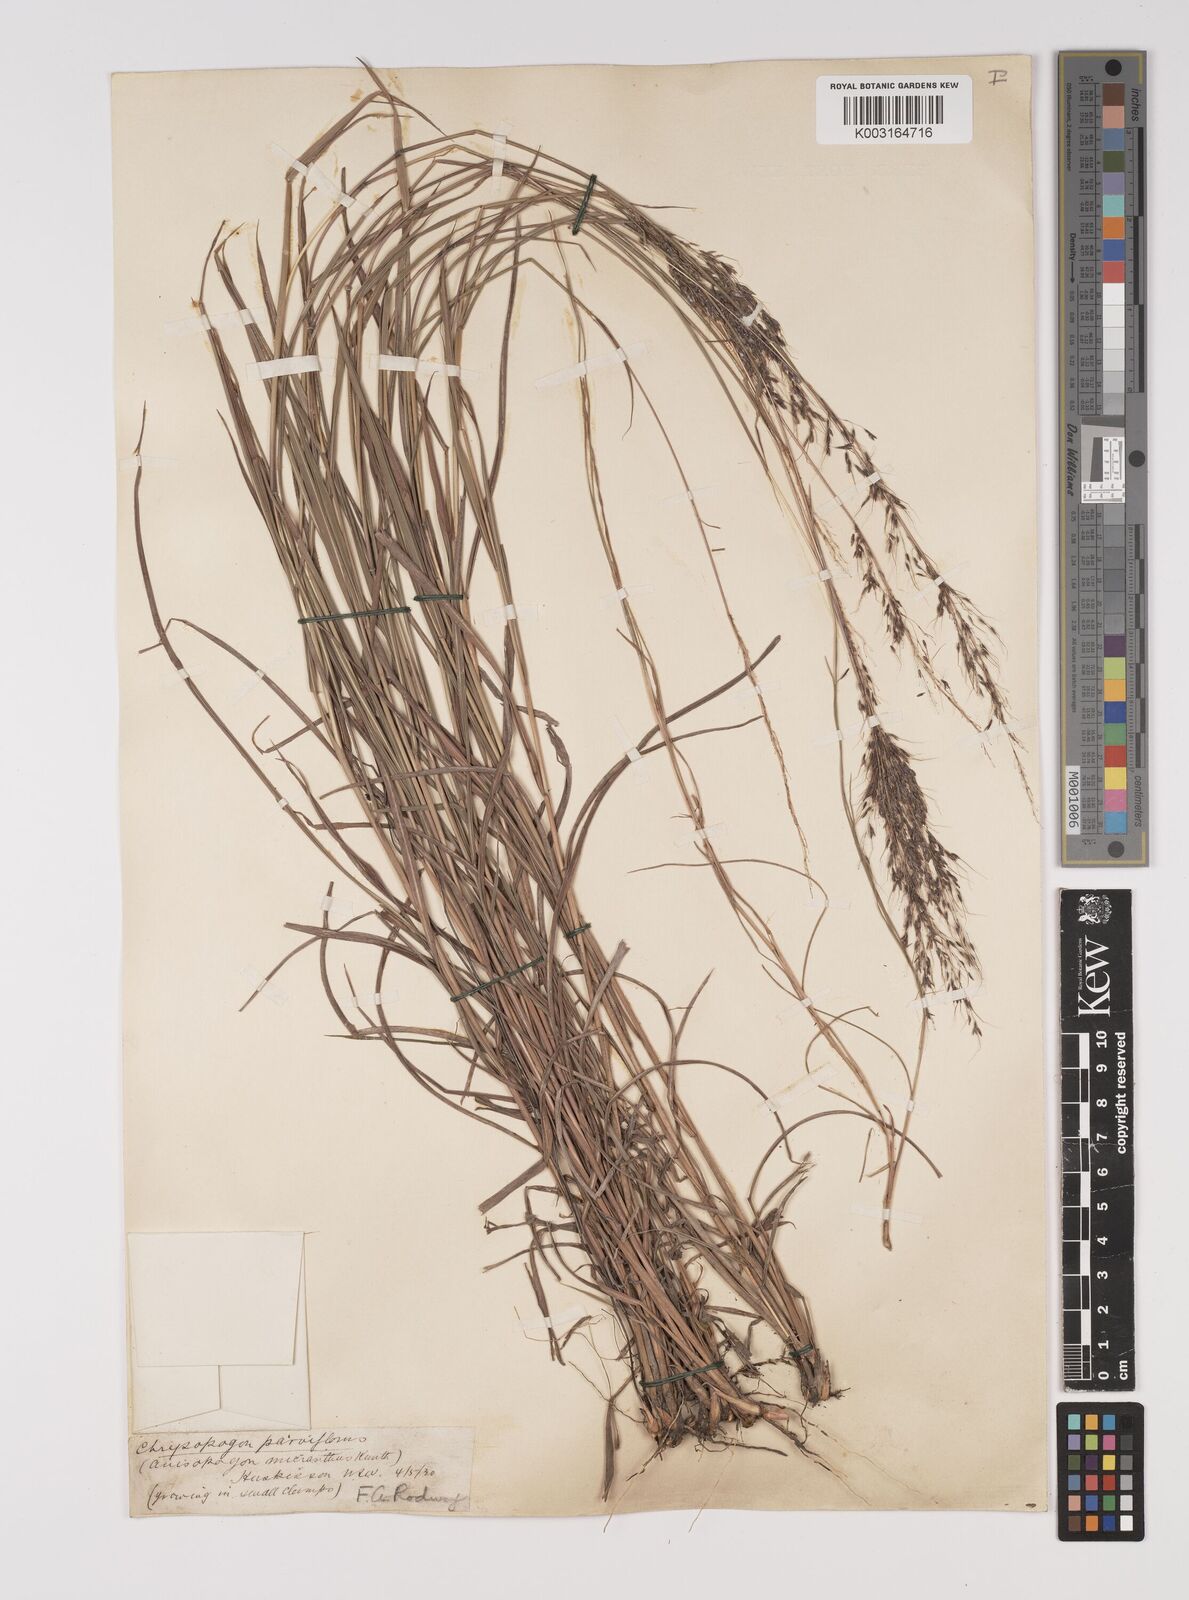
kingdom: Plantae
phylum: Tracheophyta
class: Liliopsida
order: Poales
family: Poaceae
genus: Capillipedium
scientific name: Capillipedium parviflorum
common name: Golden-beard
